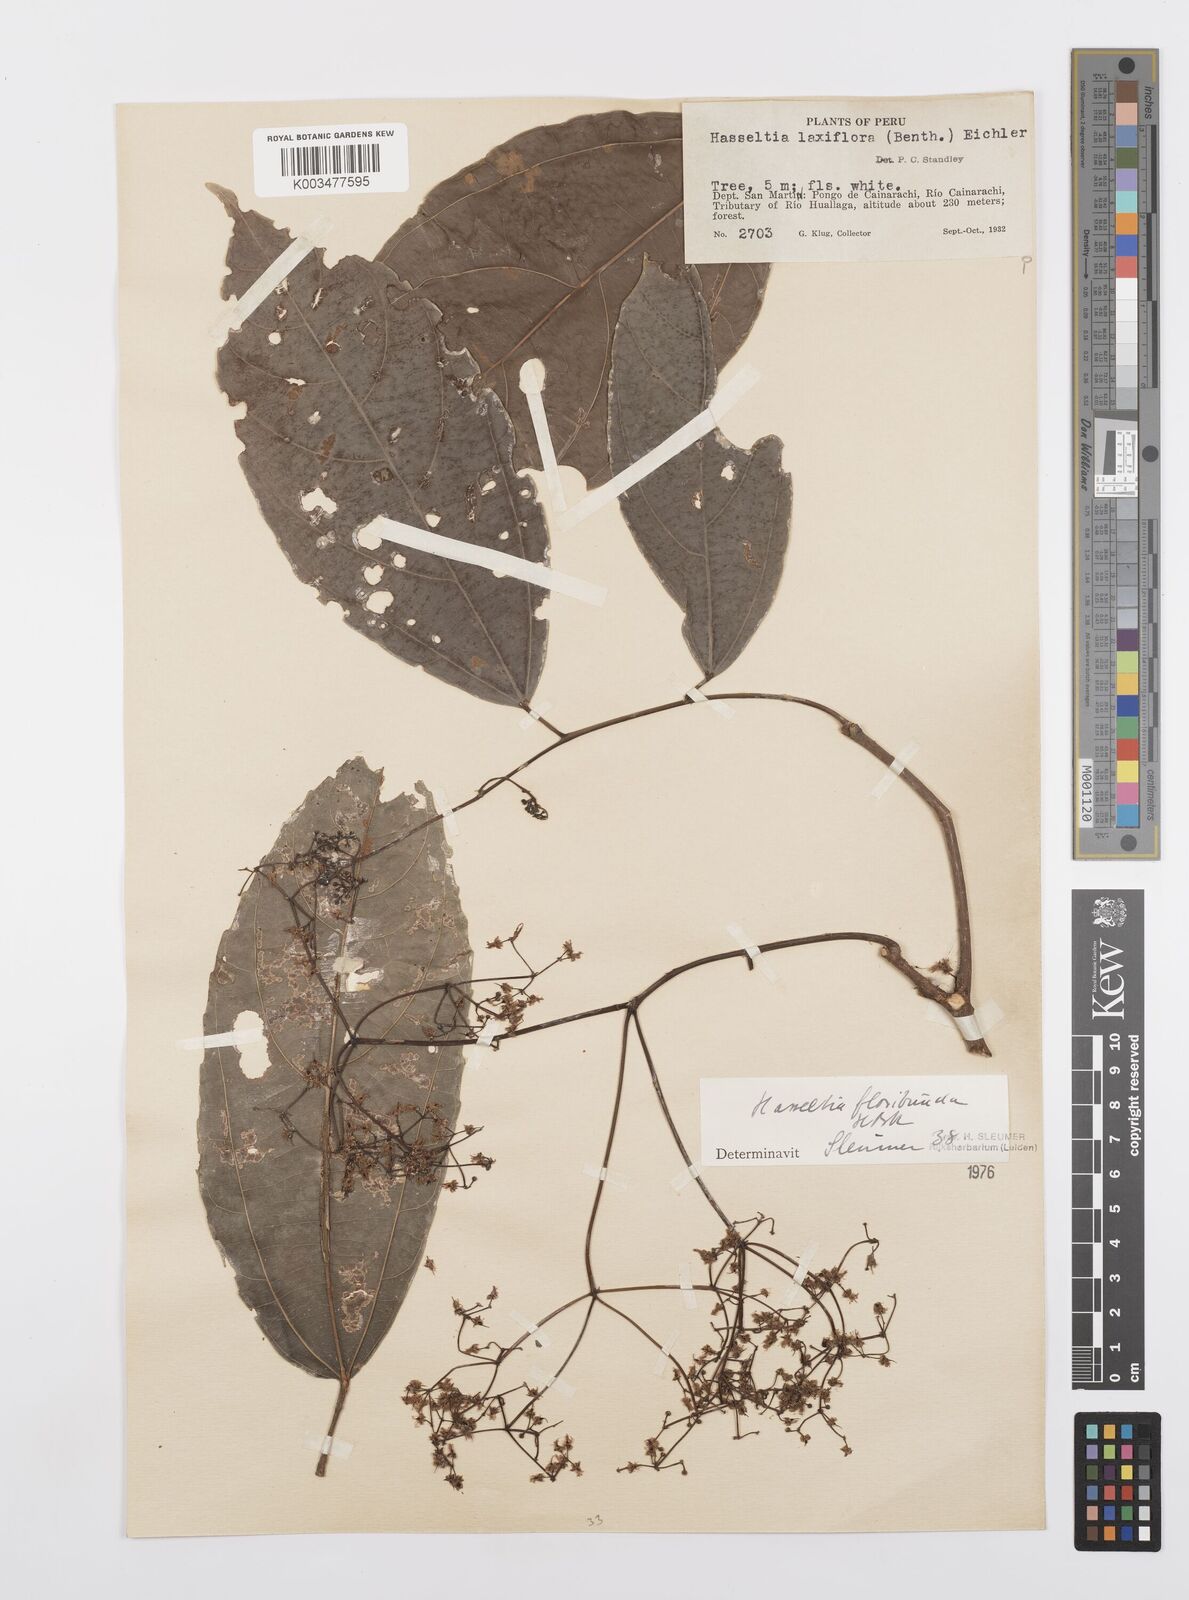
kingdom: Plantae
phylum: Tracheophyta
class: Magnoliopsida
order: Malpighiales
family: Salicaceae
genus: Hasseltia
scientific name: Hasseltia floribunda
